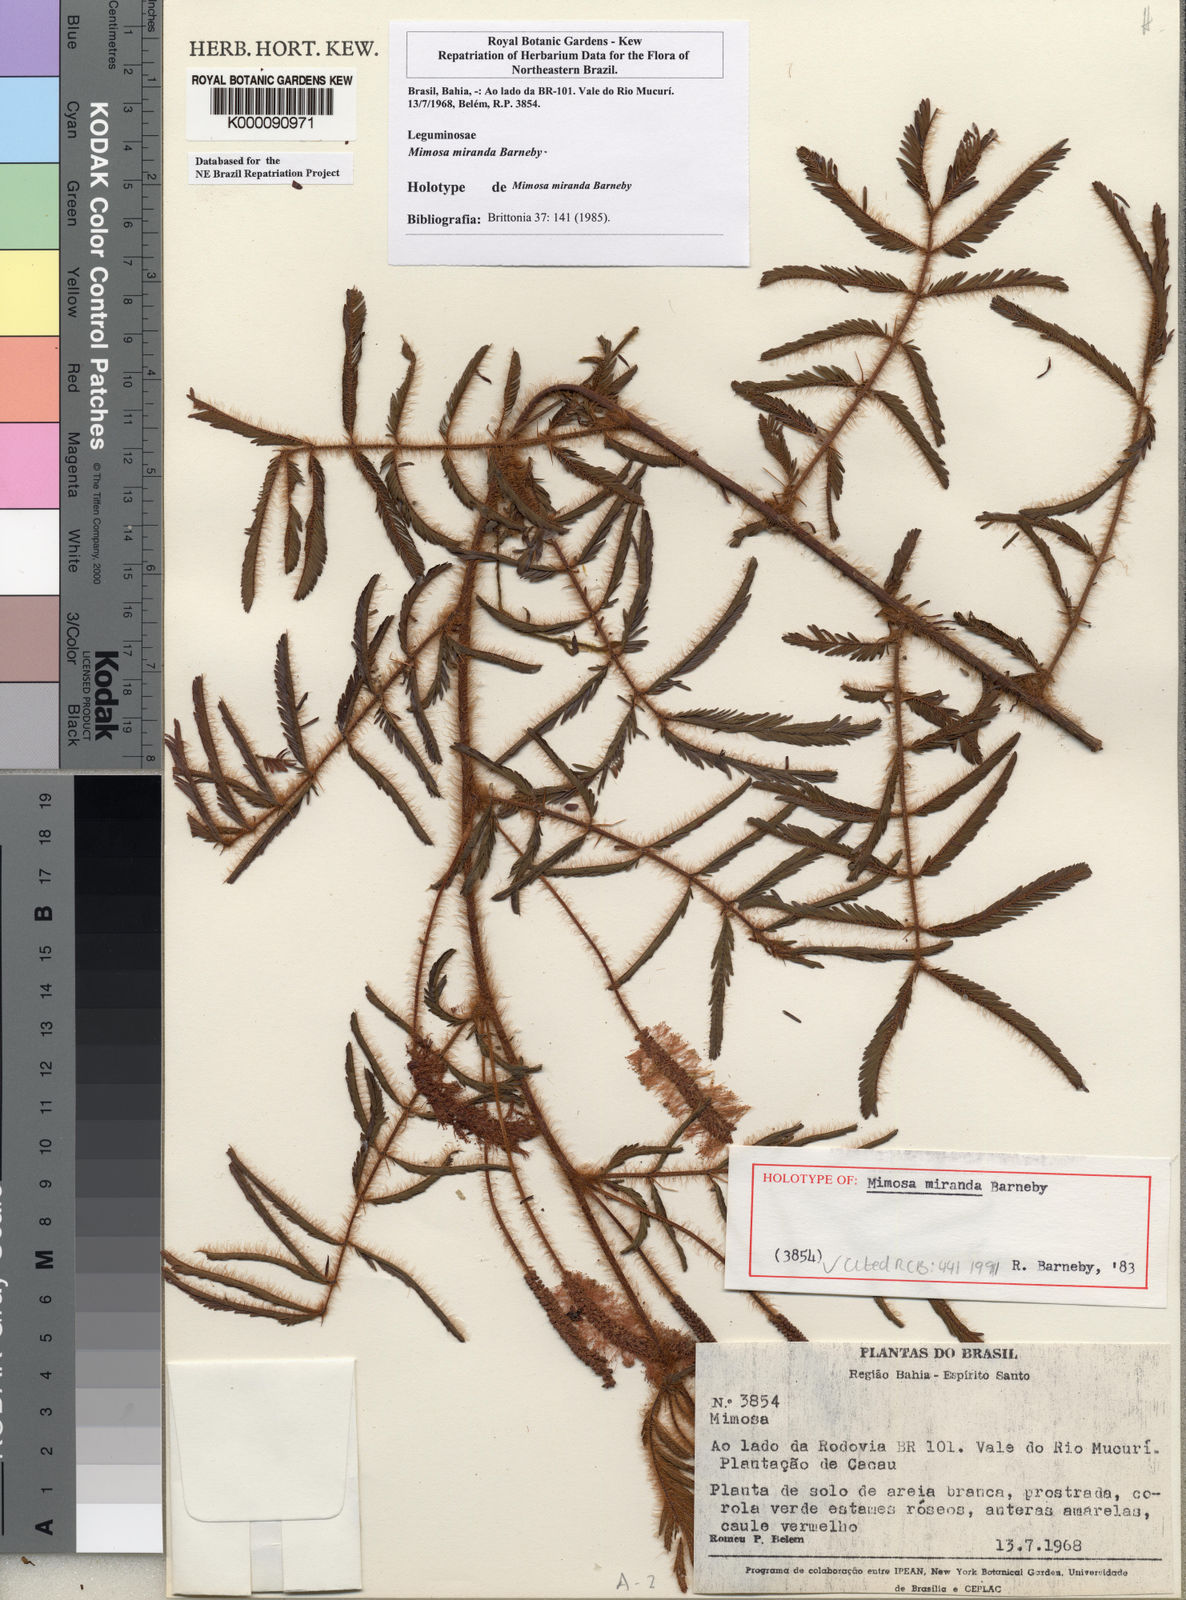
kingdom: Plantae
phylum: Tracheophyta
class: Magnoliopsida
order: Fabales
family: Fabaceae
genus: Mimosa
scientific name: Mimosa miranda
